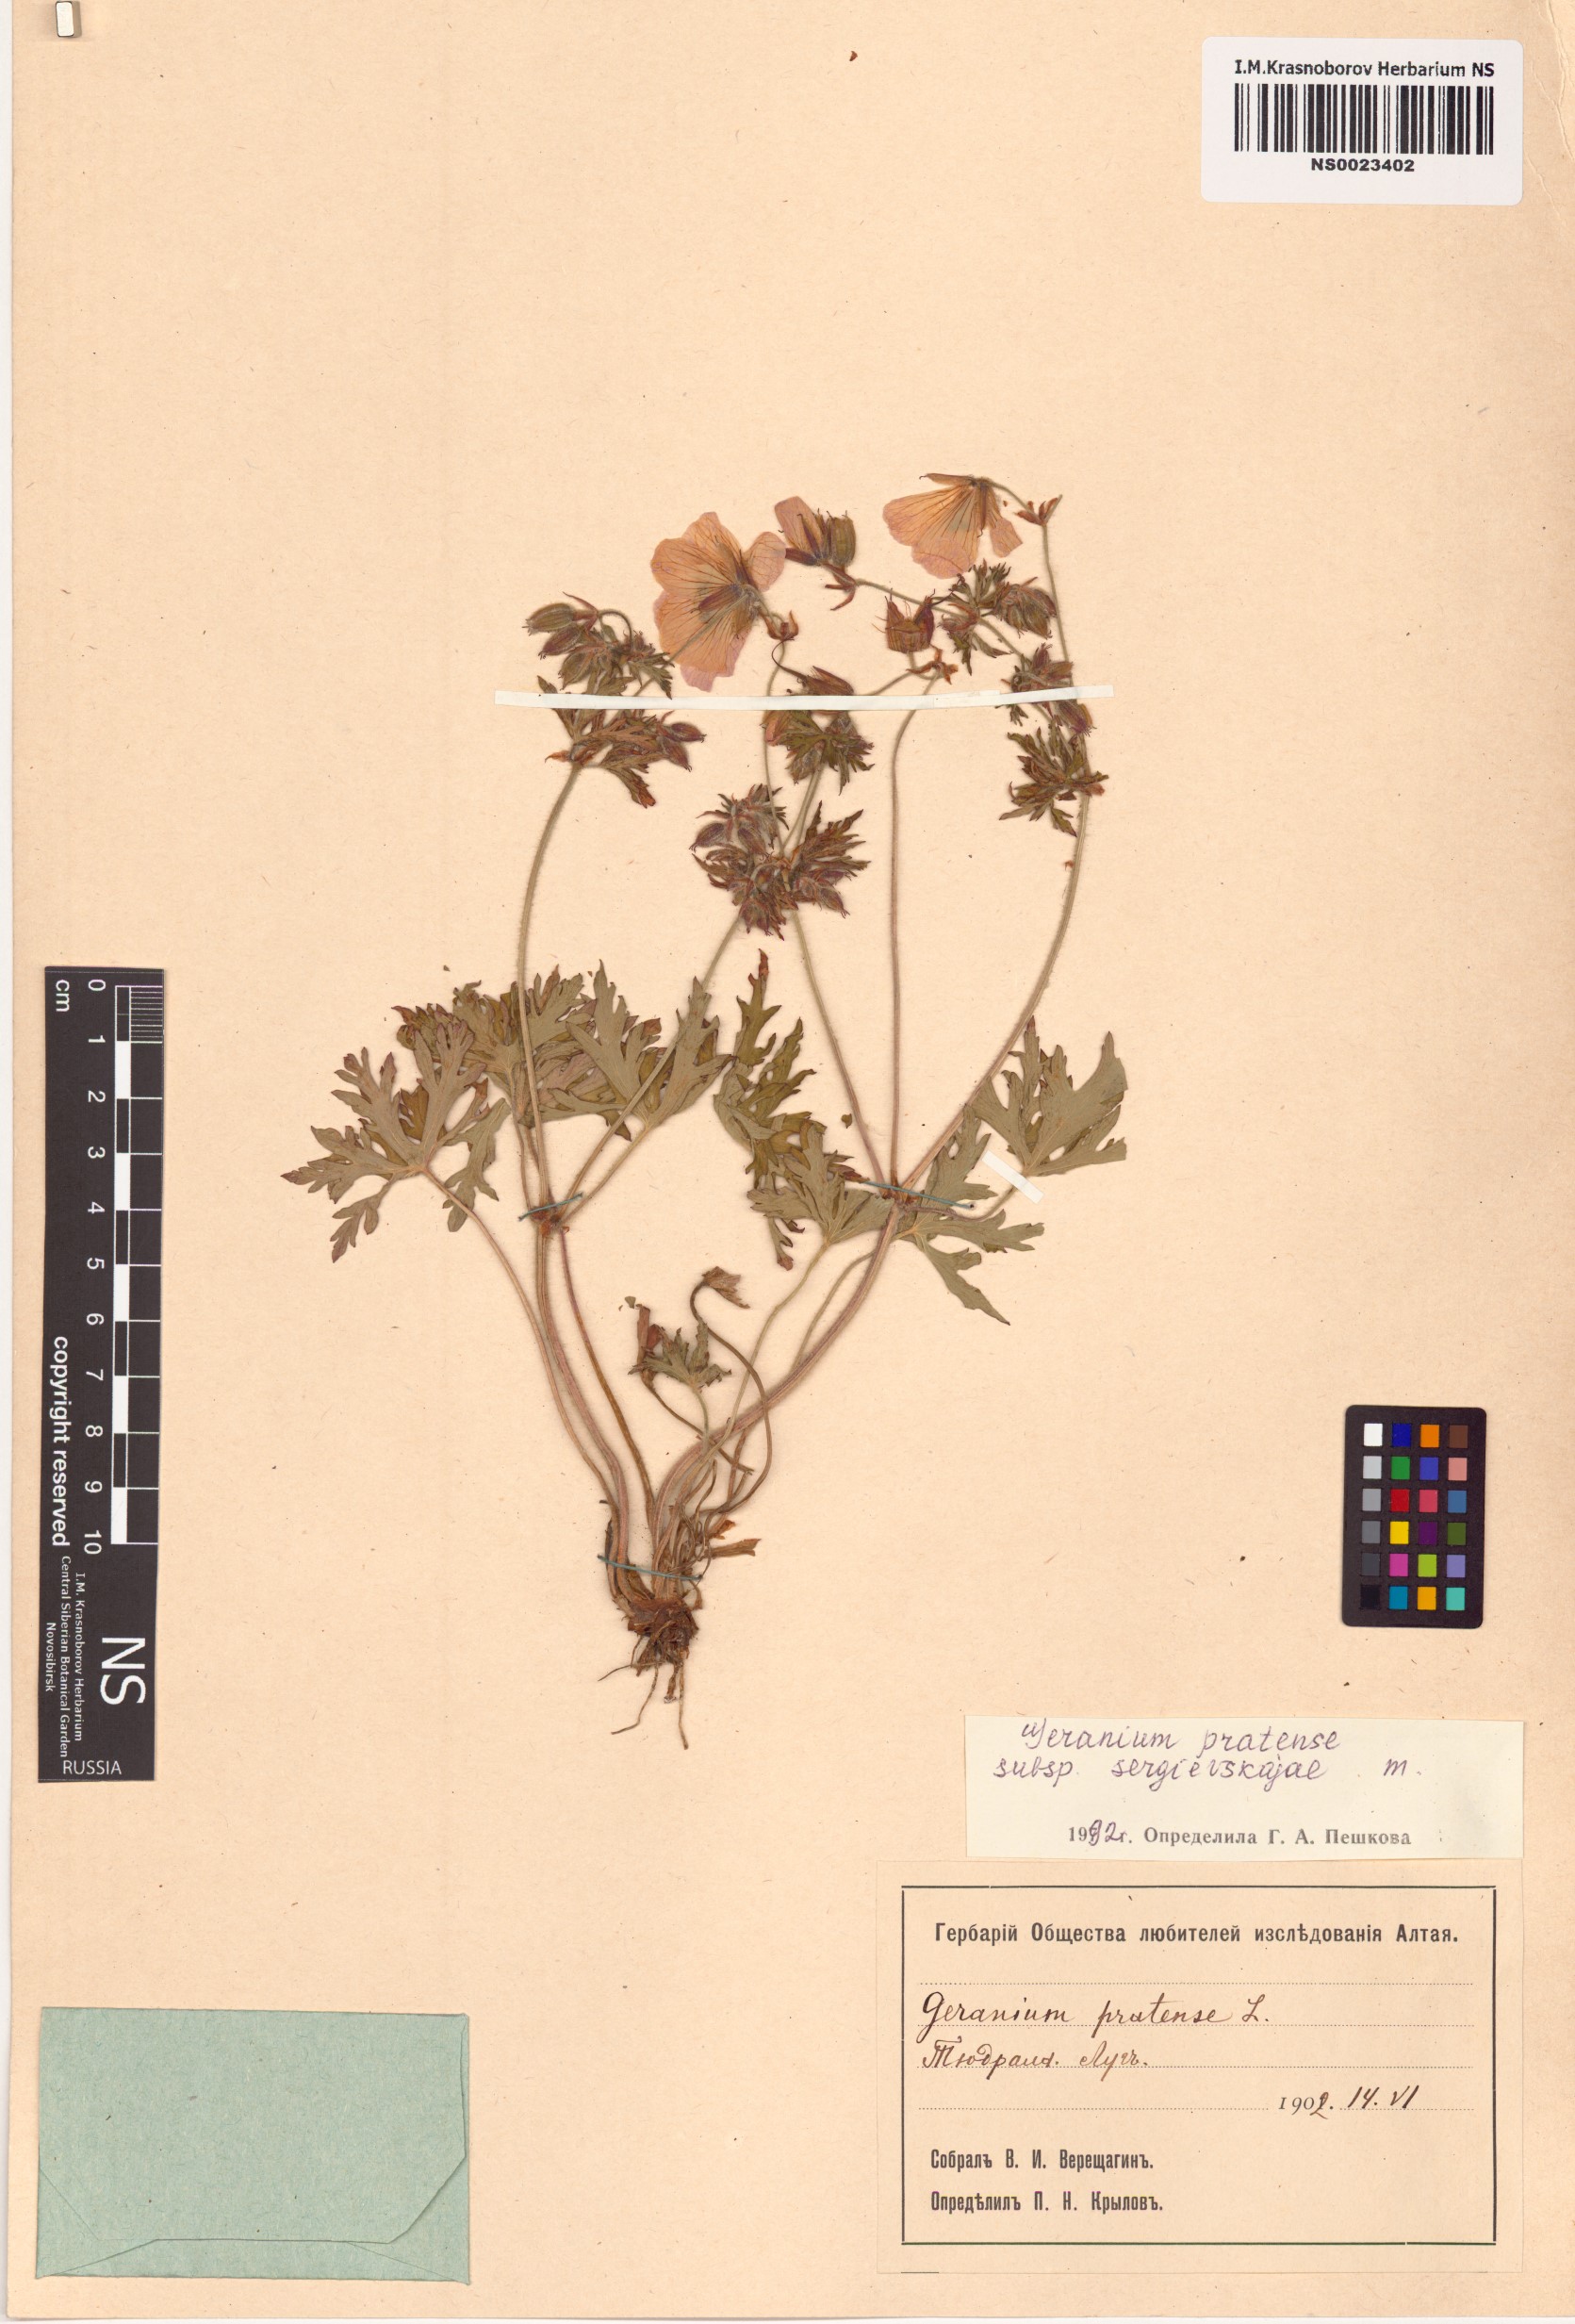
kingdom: Plantae
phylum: Tracheophyta
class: Magnoliopsida
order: Geraniales
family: Geraniaceae
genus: Geranium
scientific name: Geranium pratense
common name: Meadow crane's-bill
